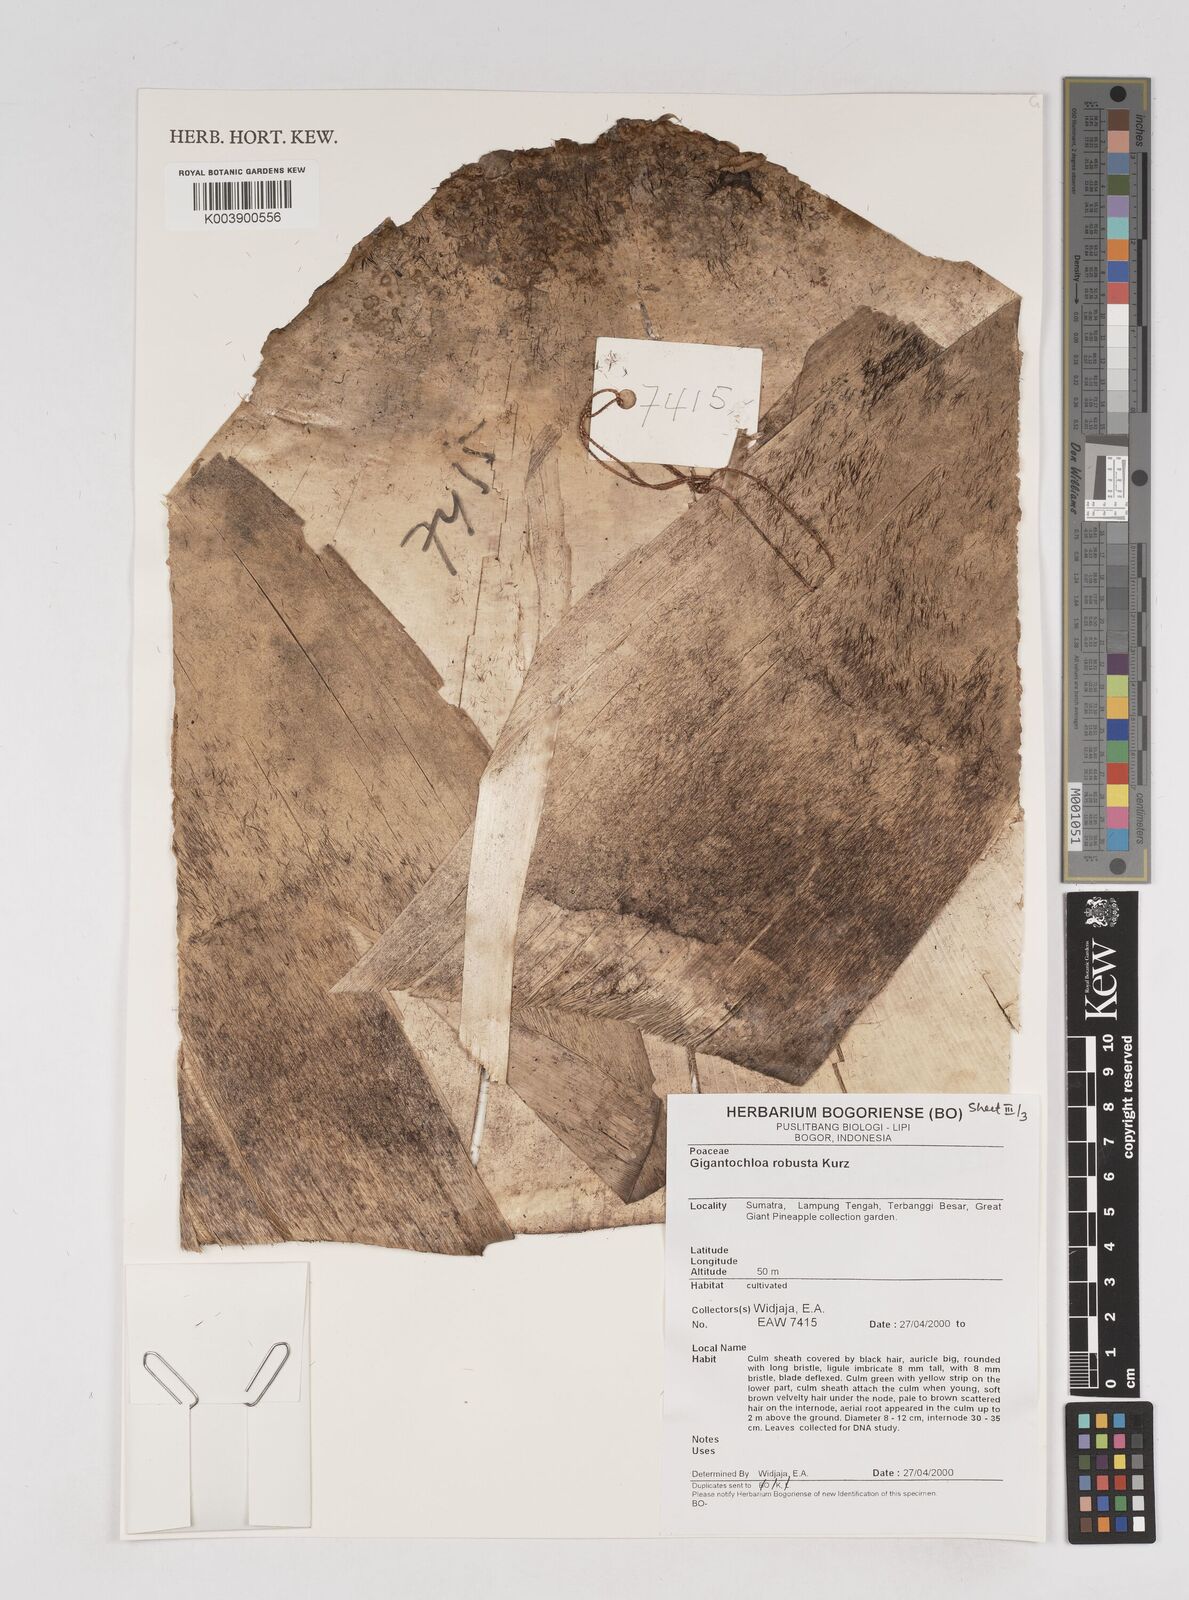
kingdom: Plantae
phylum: Tracheophyta
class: Liliopsida
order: Poales
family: Poaceae
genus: Gigantochloa
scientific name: Gigantochloa robusta
